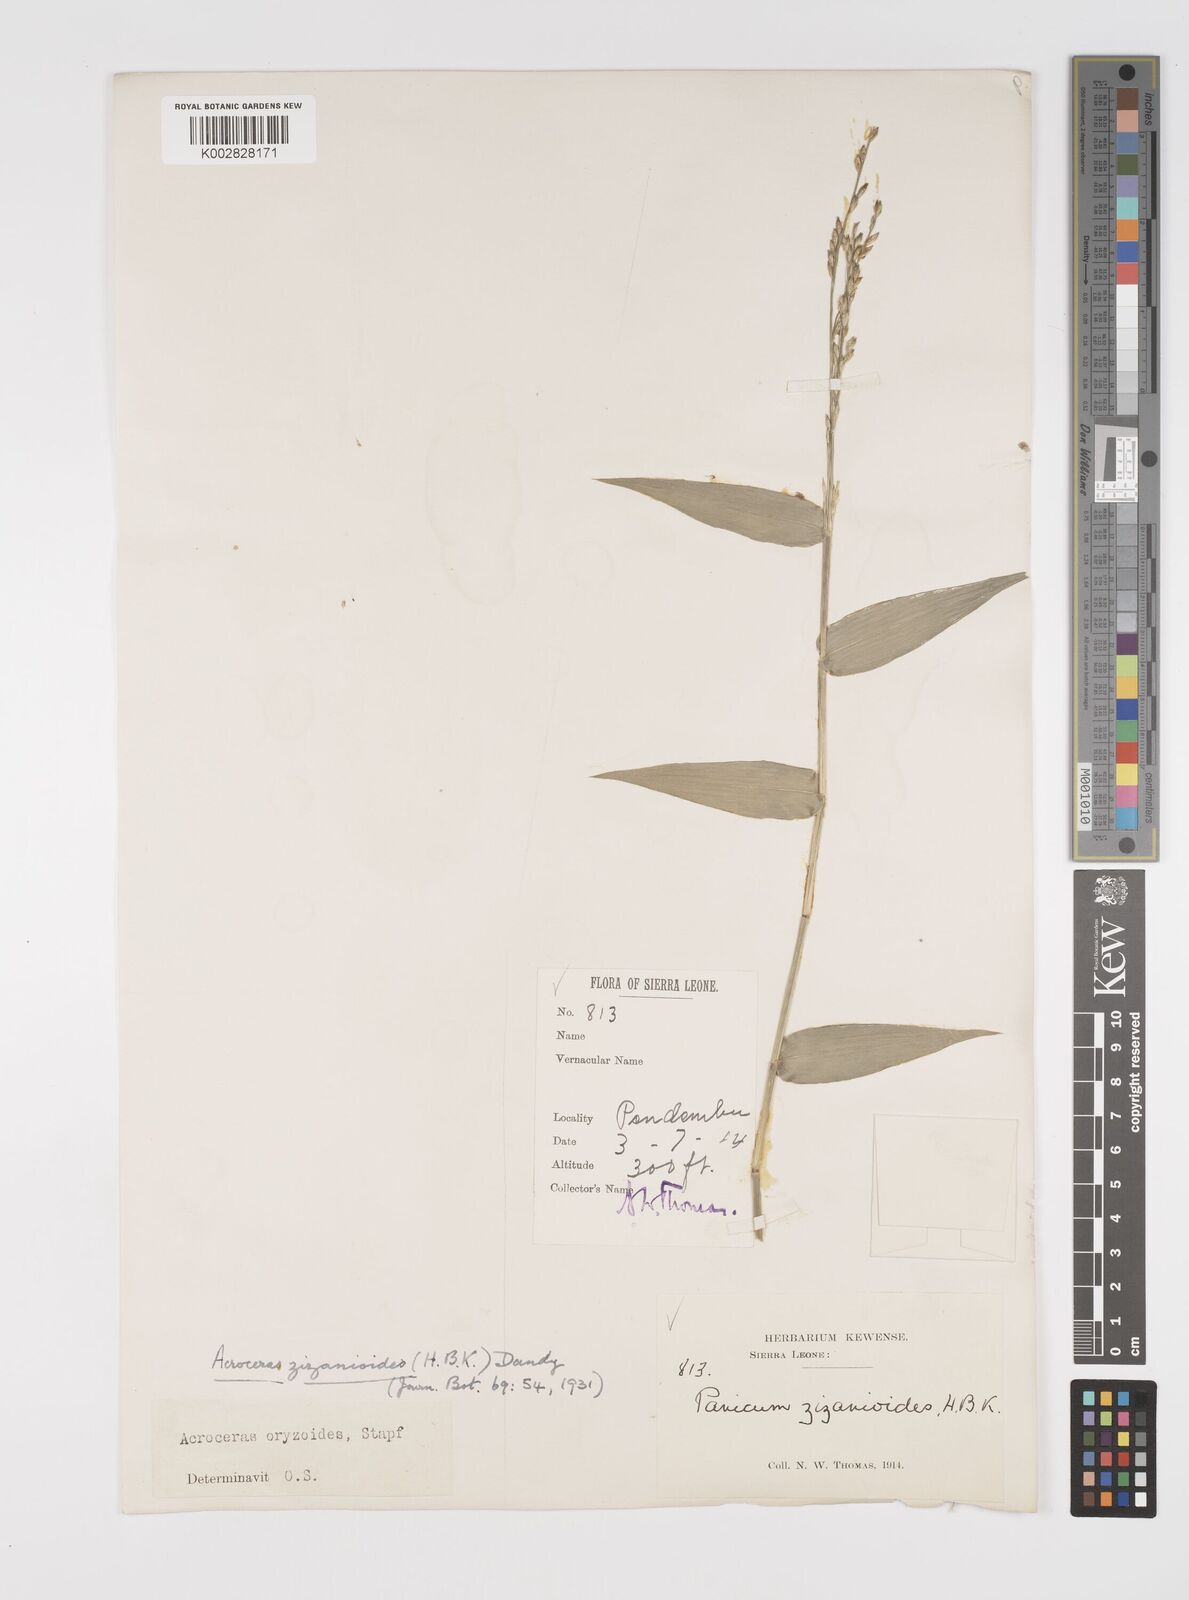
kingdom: Plantae
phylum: Tracheophyta
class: Liliopsida
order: Poales
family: Poaceae
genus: Acroceras
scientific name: Acroceras zizanioides
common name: Oat grass
